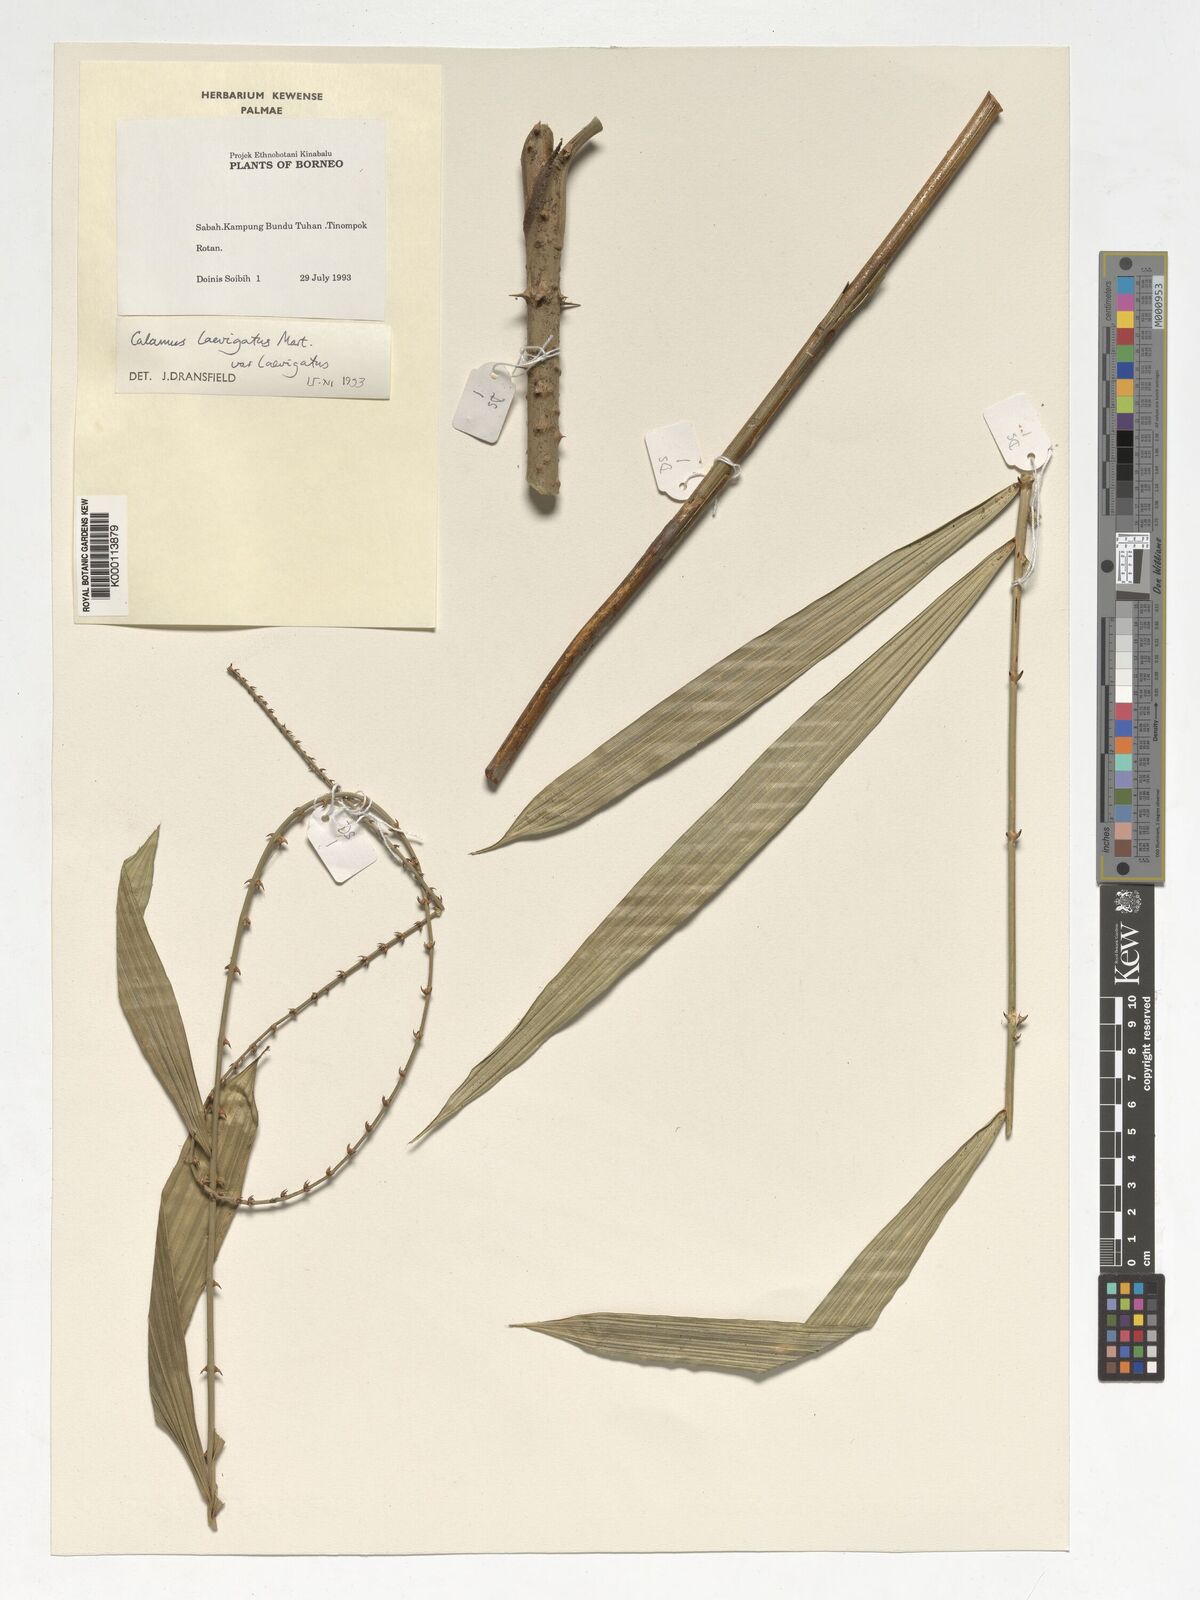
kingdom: Plantae
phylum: Tracheophyta
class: Liliopsida
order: Arecales
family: Arecaceae
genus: Calamus
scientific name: Calamus
